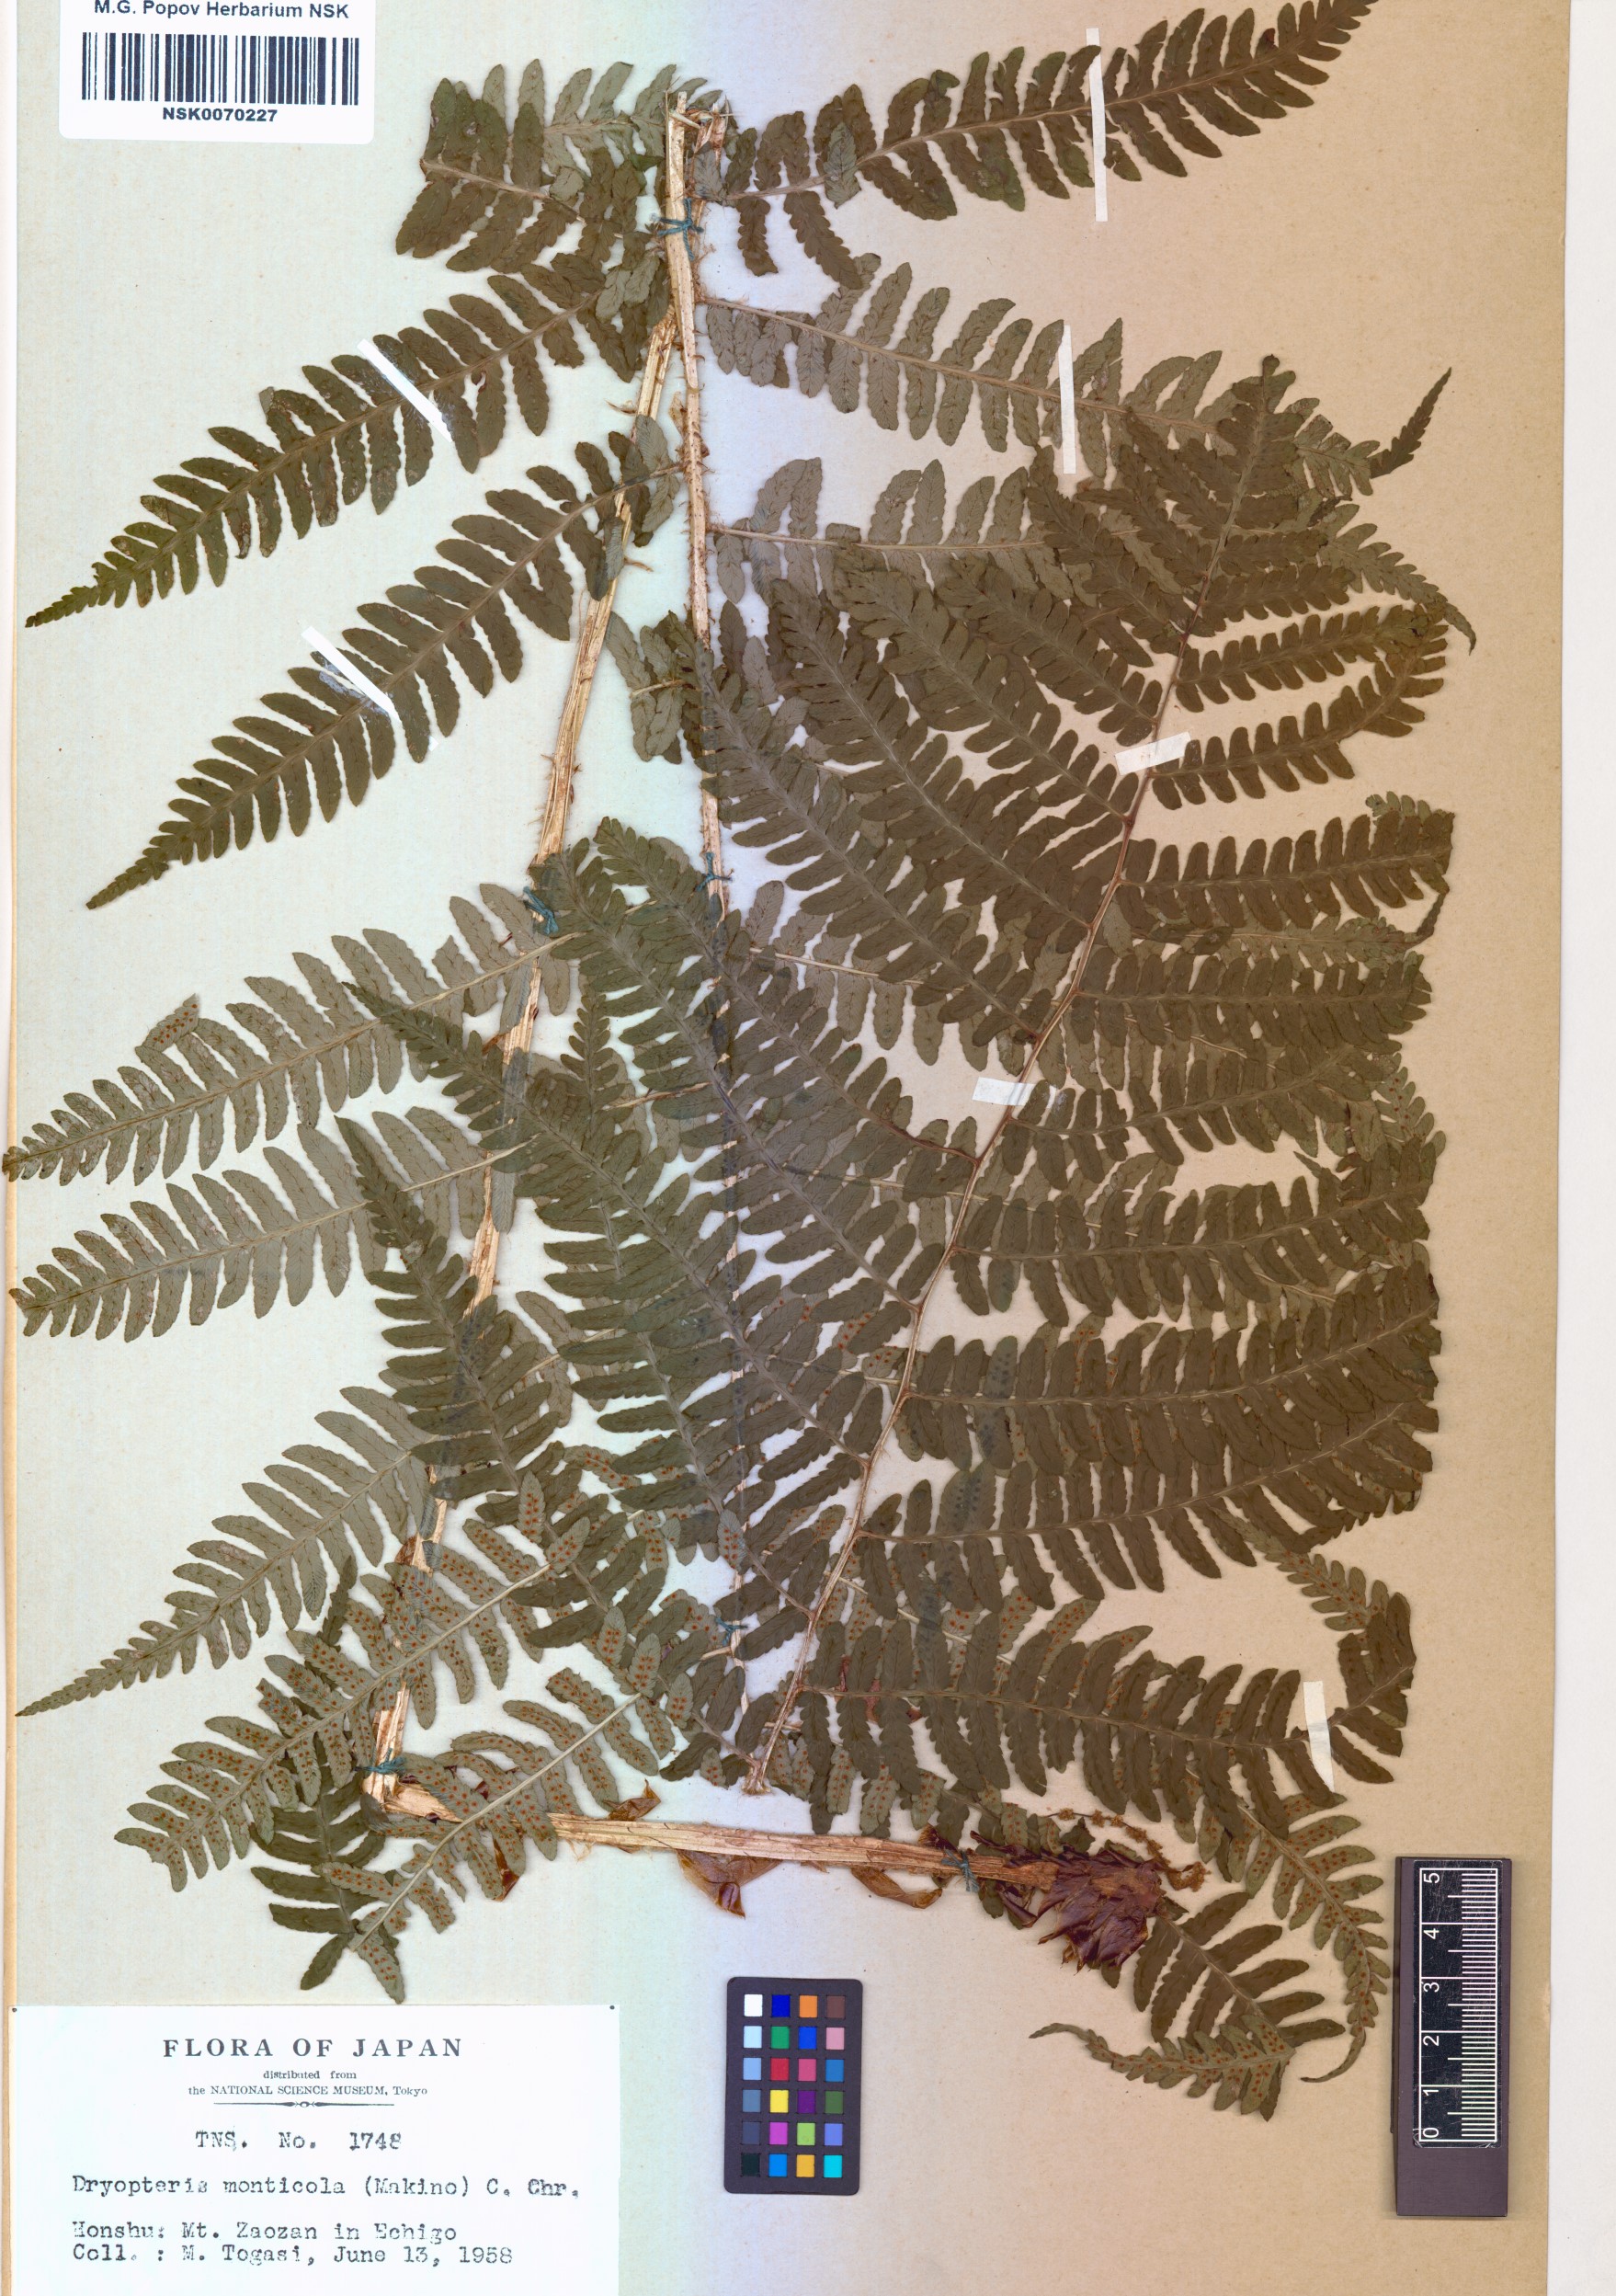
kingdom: Plantae
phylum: Tracheophyta
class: Polypodiopsida
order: Polypodiales
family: Dryopteridaceae
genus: Dryopteris
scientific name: Dryopteris monticola
